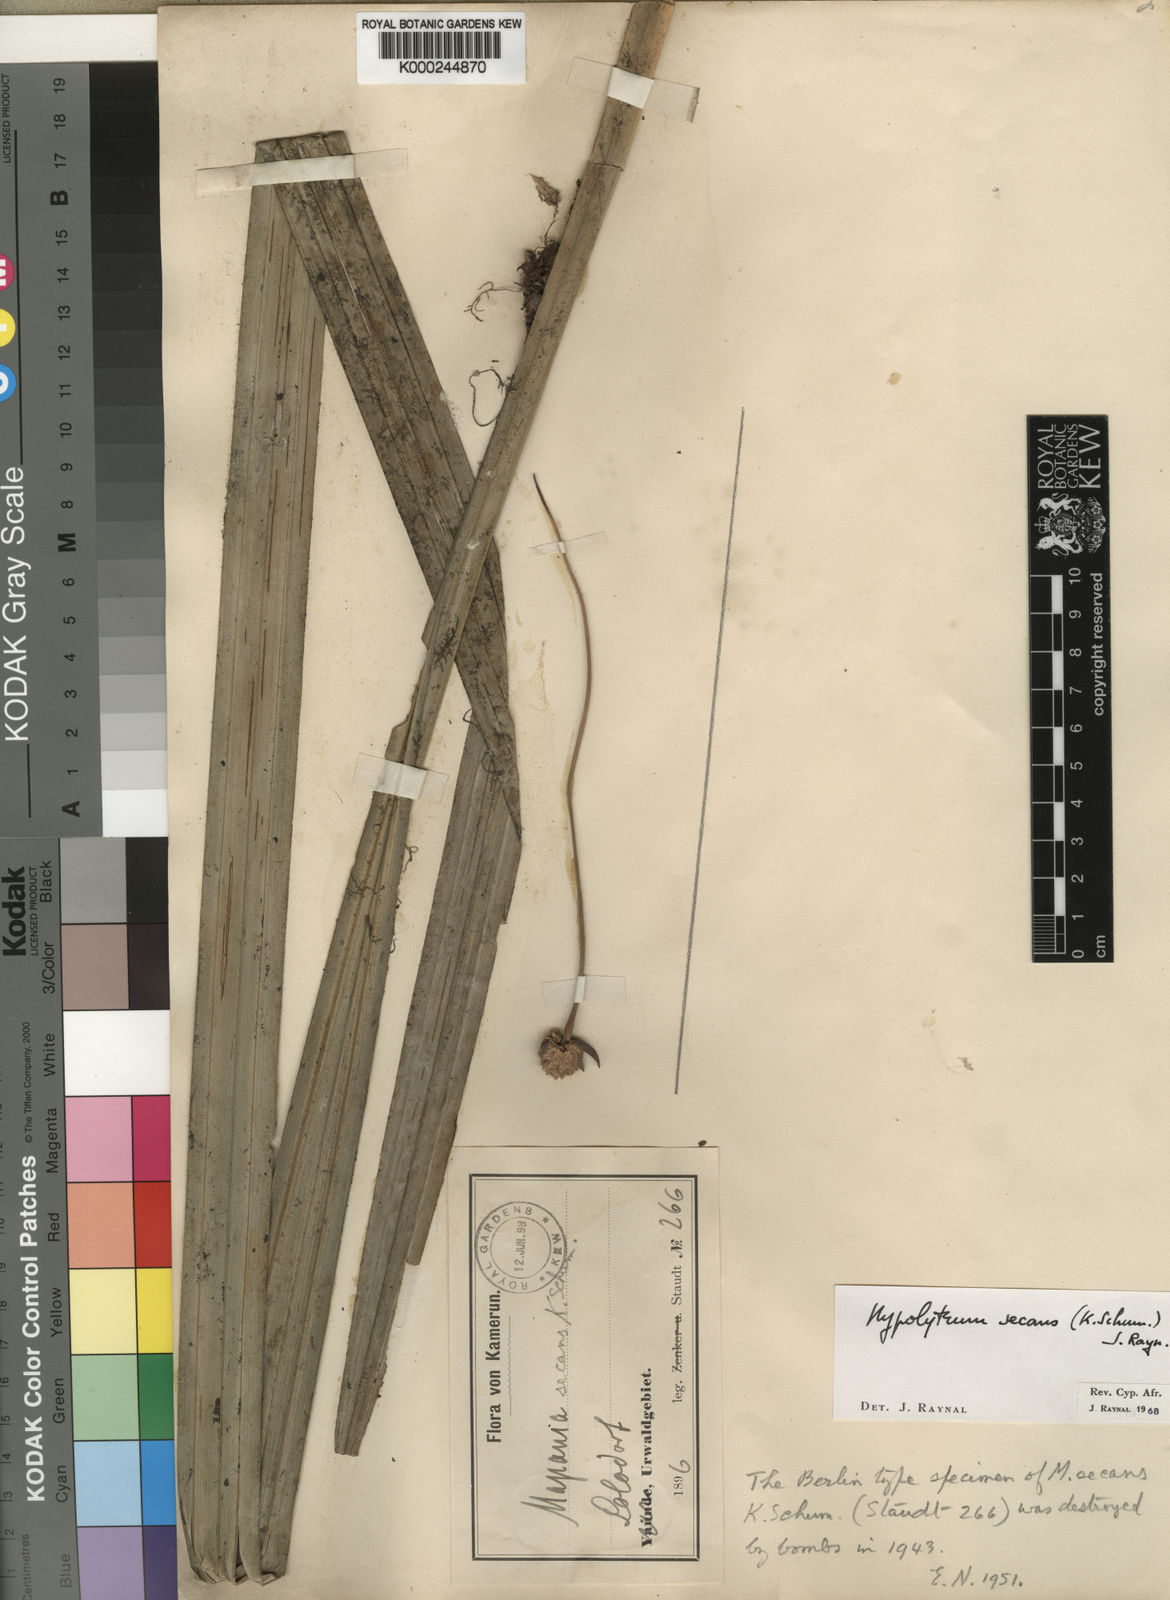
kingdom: Plantae
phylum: Tracheophyta
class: Liliopsida
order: Poales
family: Cyperaceae
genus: Hypolytrum
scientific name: Hypolytrum secans
